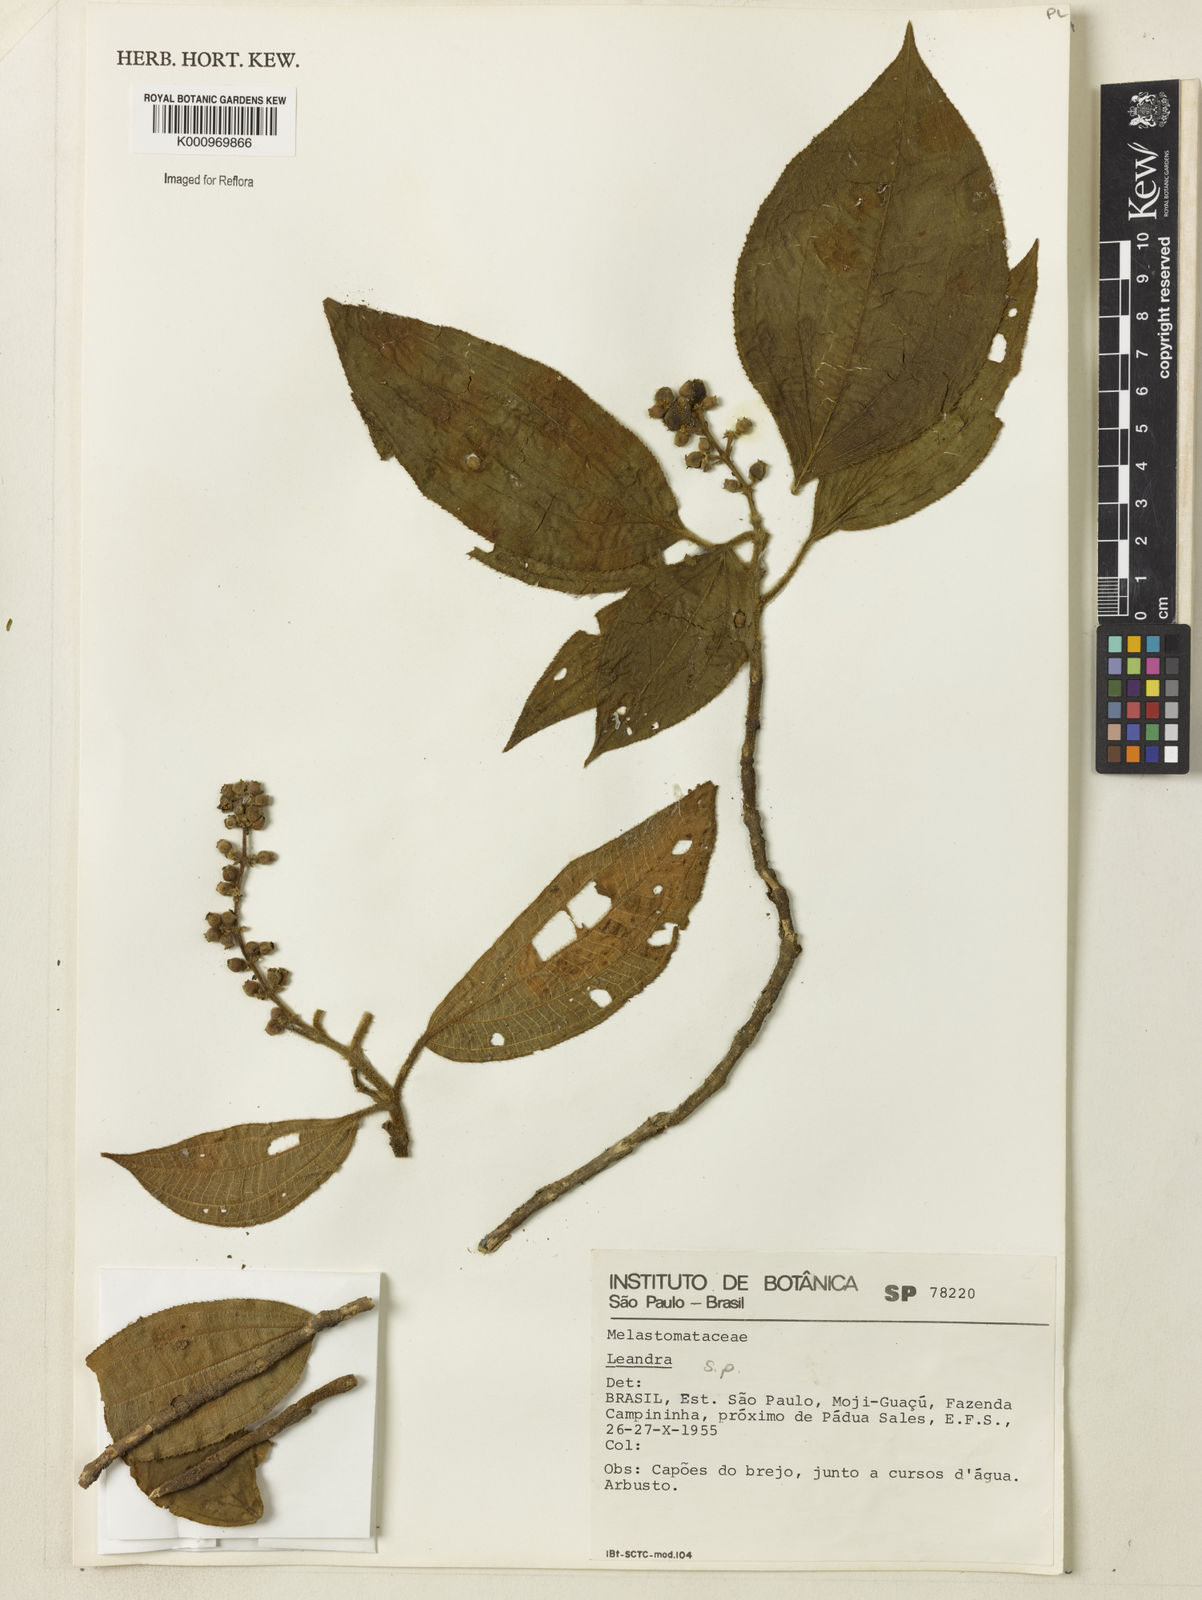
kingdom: Plantae
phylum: Tracheophyta
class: Magnoliopsida
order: Myrtales
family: Melastomataceae
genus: Miconia
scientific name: Miconia
